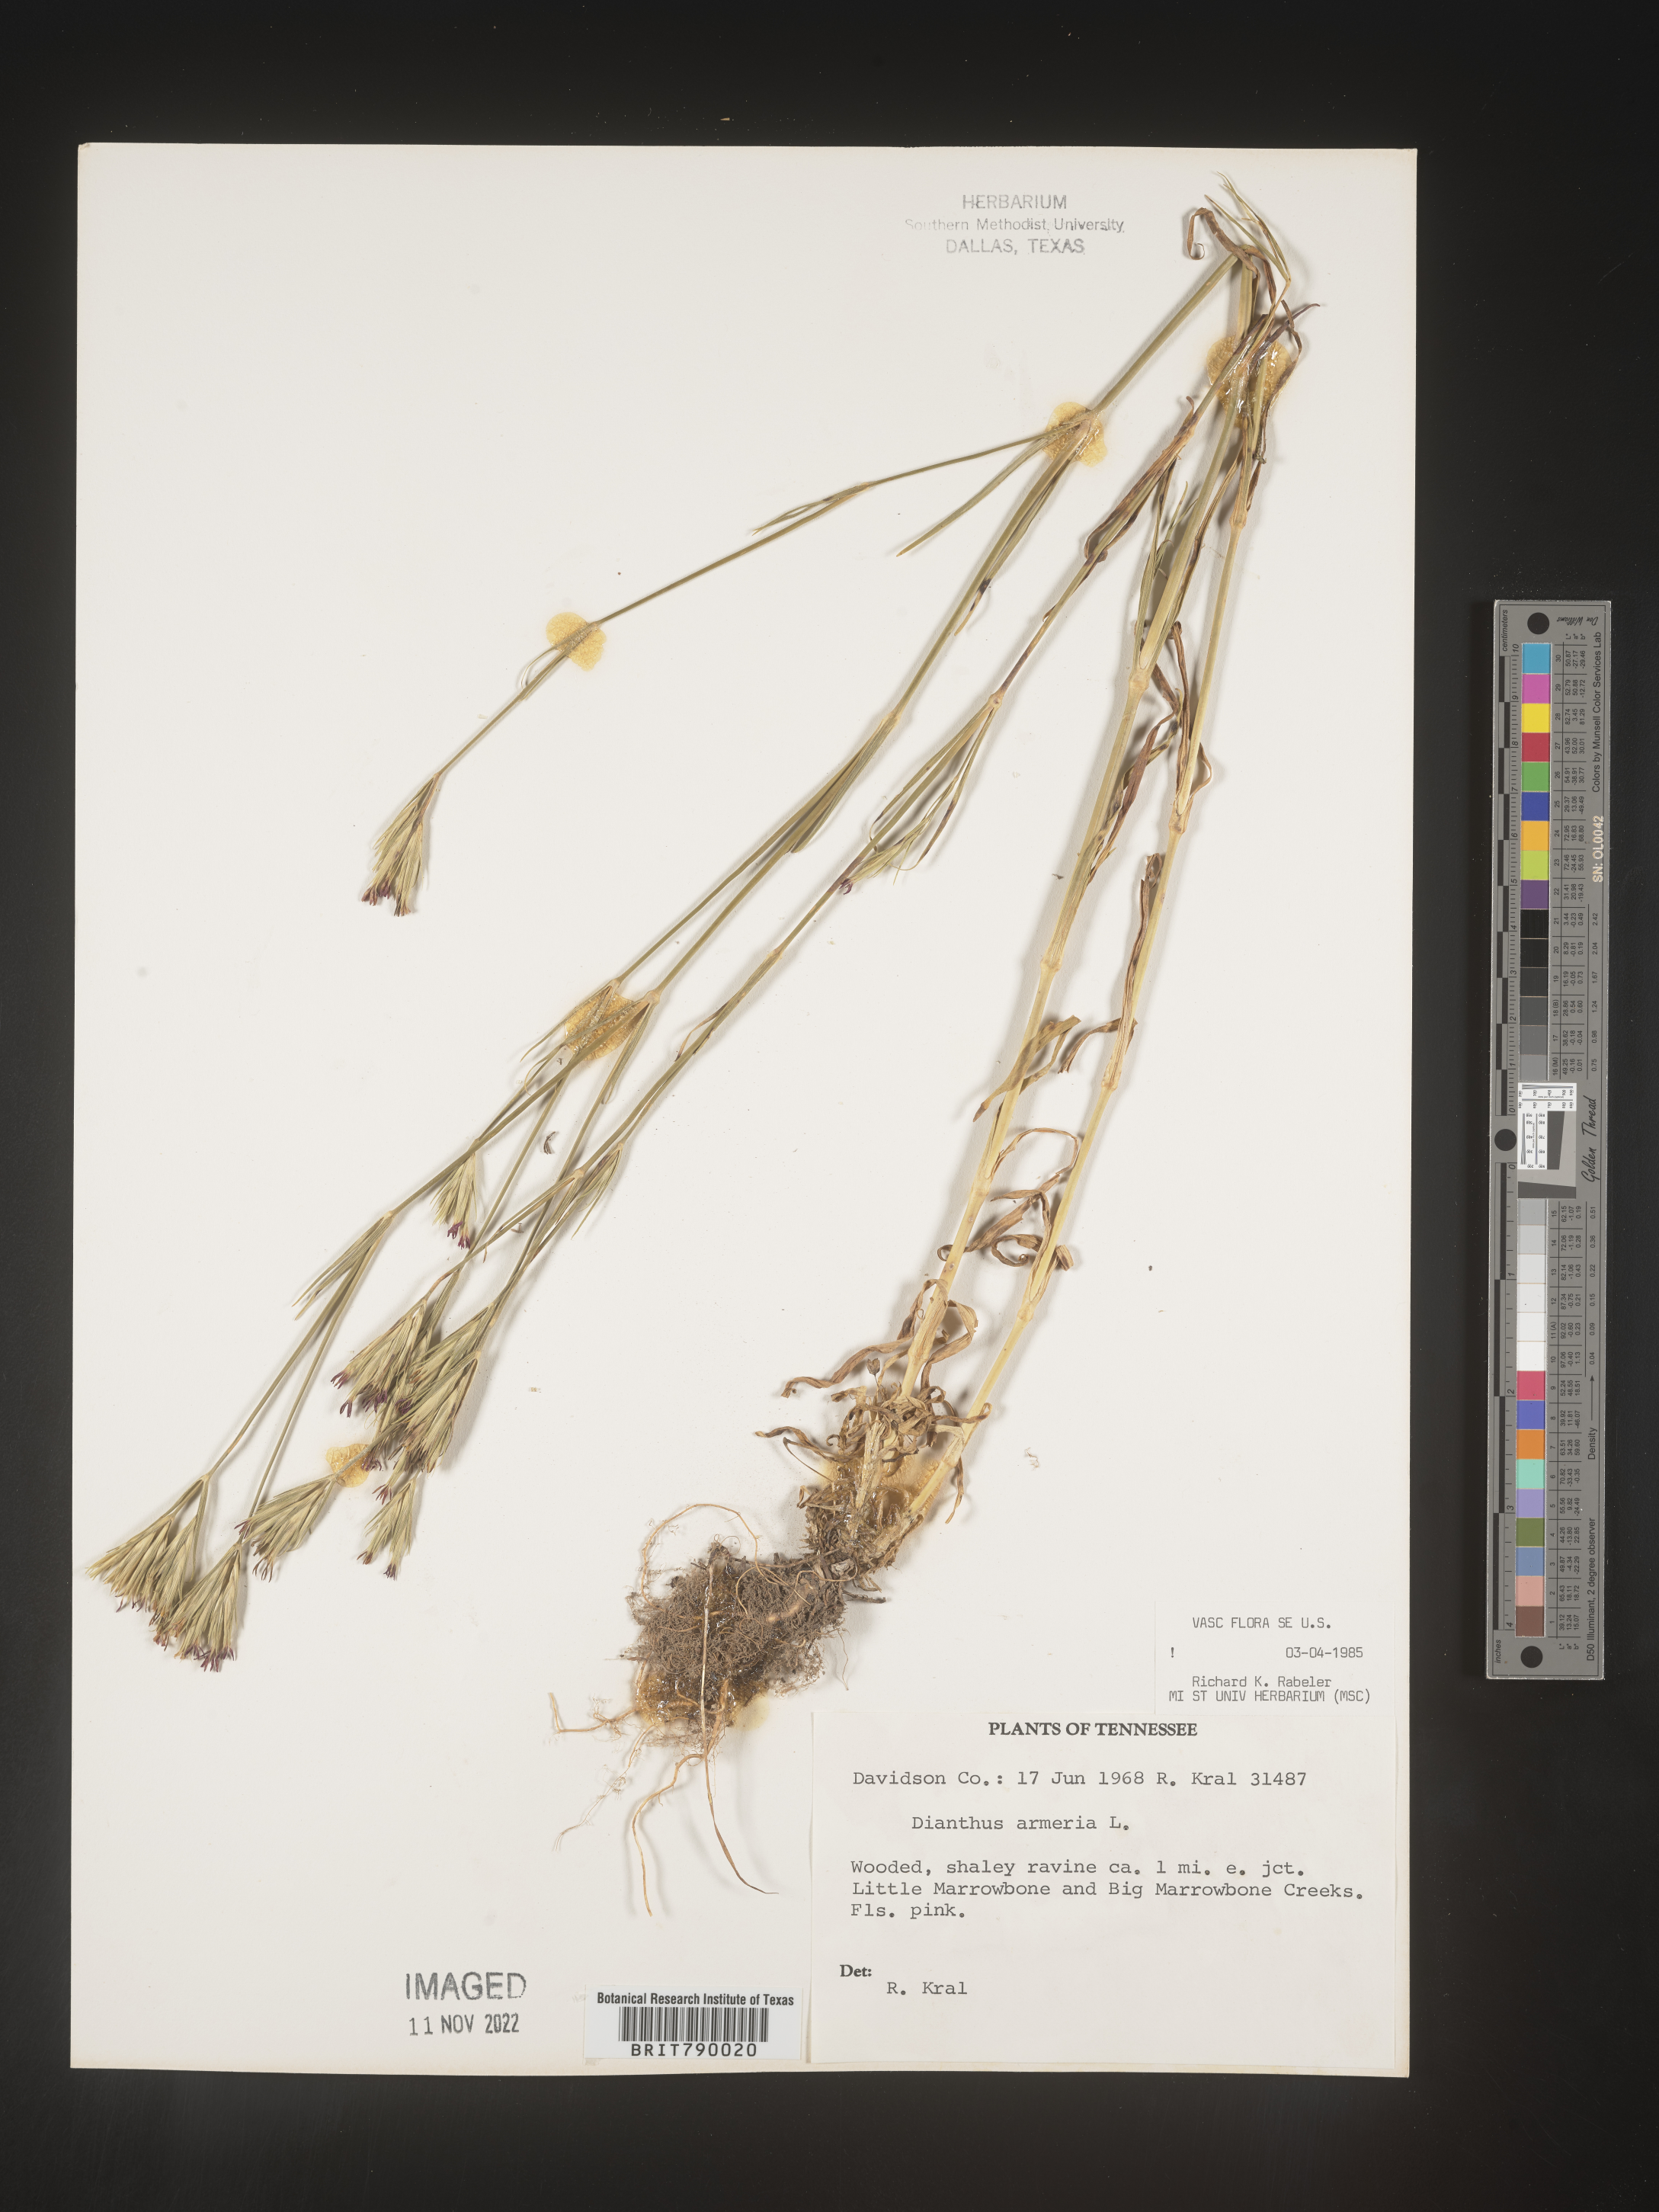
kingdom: Plantae
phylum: Tracheophyta
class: Magnoliopsida
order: Caryophyllales
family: Caryophyllaceae
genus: Dianthus
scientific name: Dianthus armeria
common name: Deptford pink
